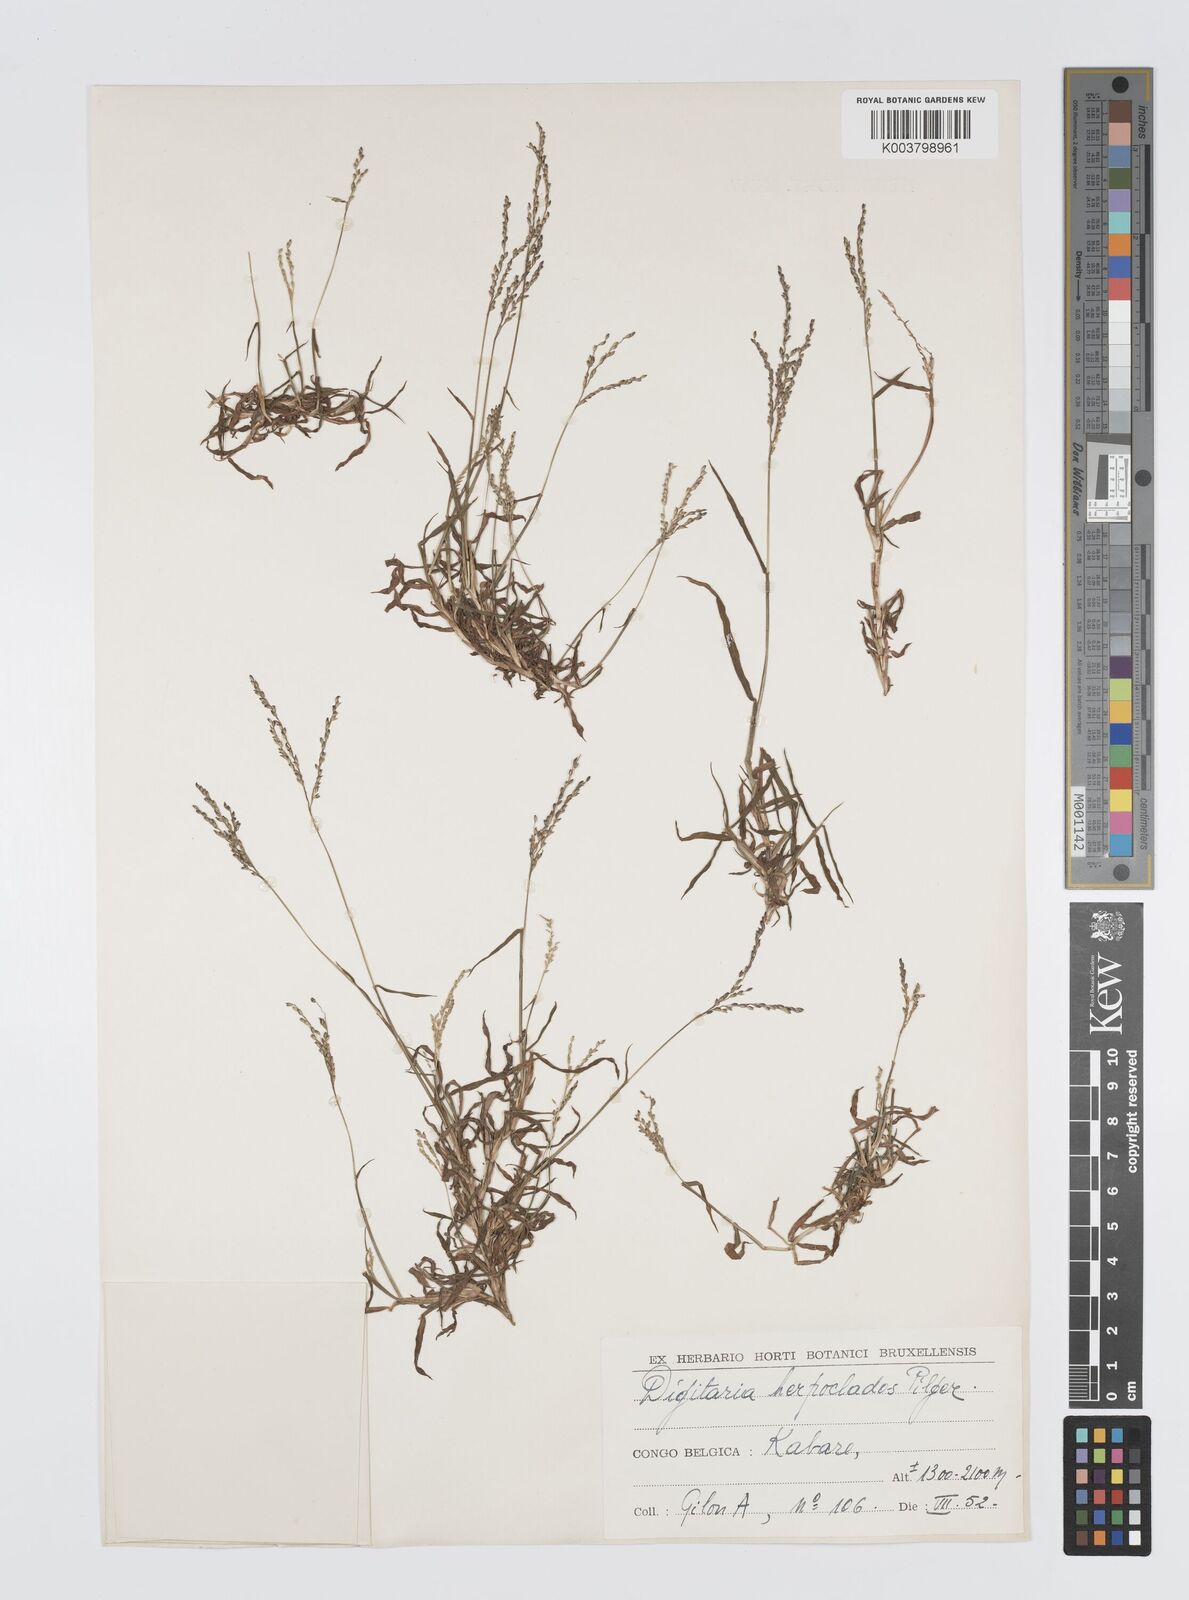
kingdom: Plantae
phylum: Tracheophyta
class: Liliopsida
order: Poales
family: Poaceae
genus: Digitaria
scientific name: Digitaria abyssinica
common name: African couchgrass
